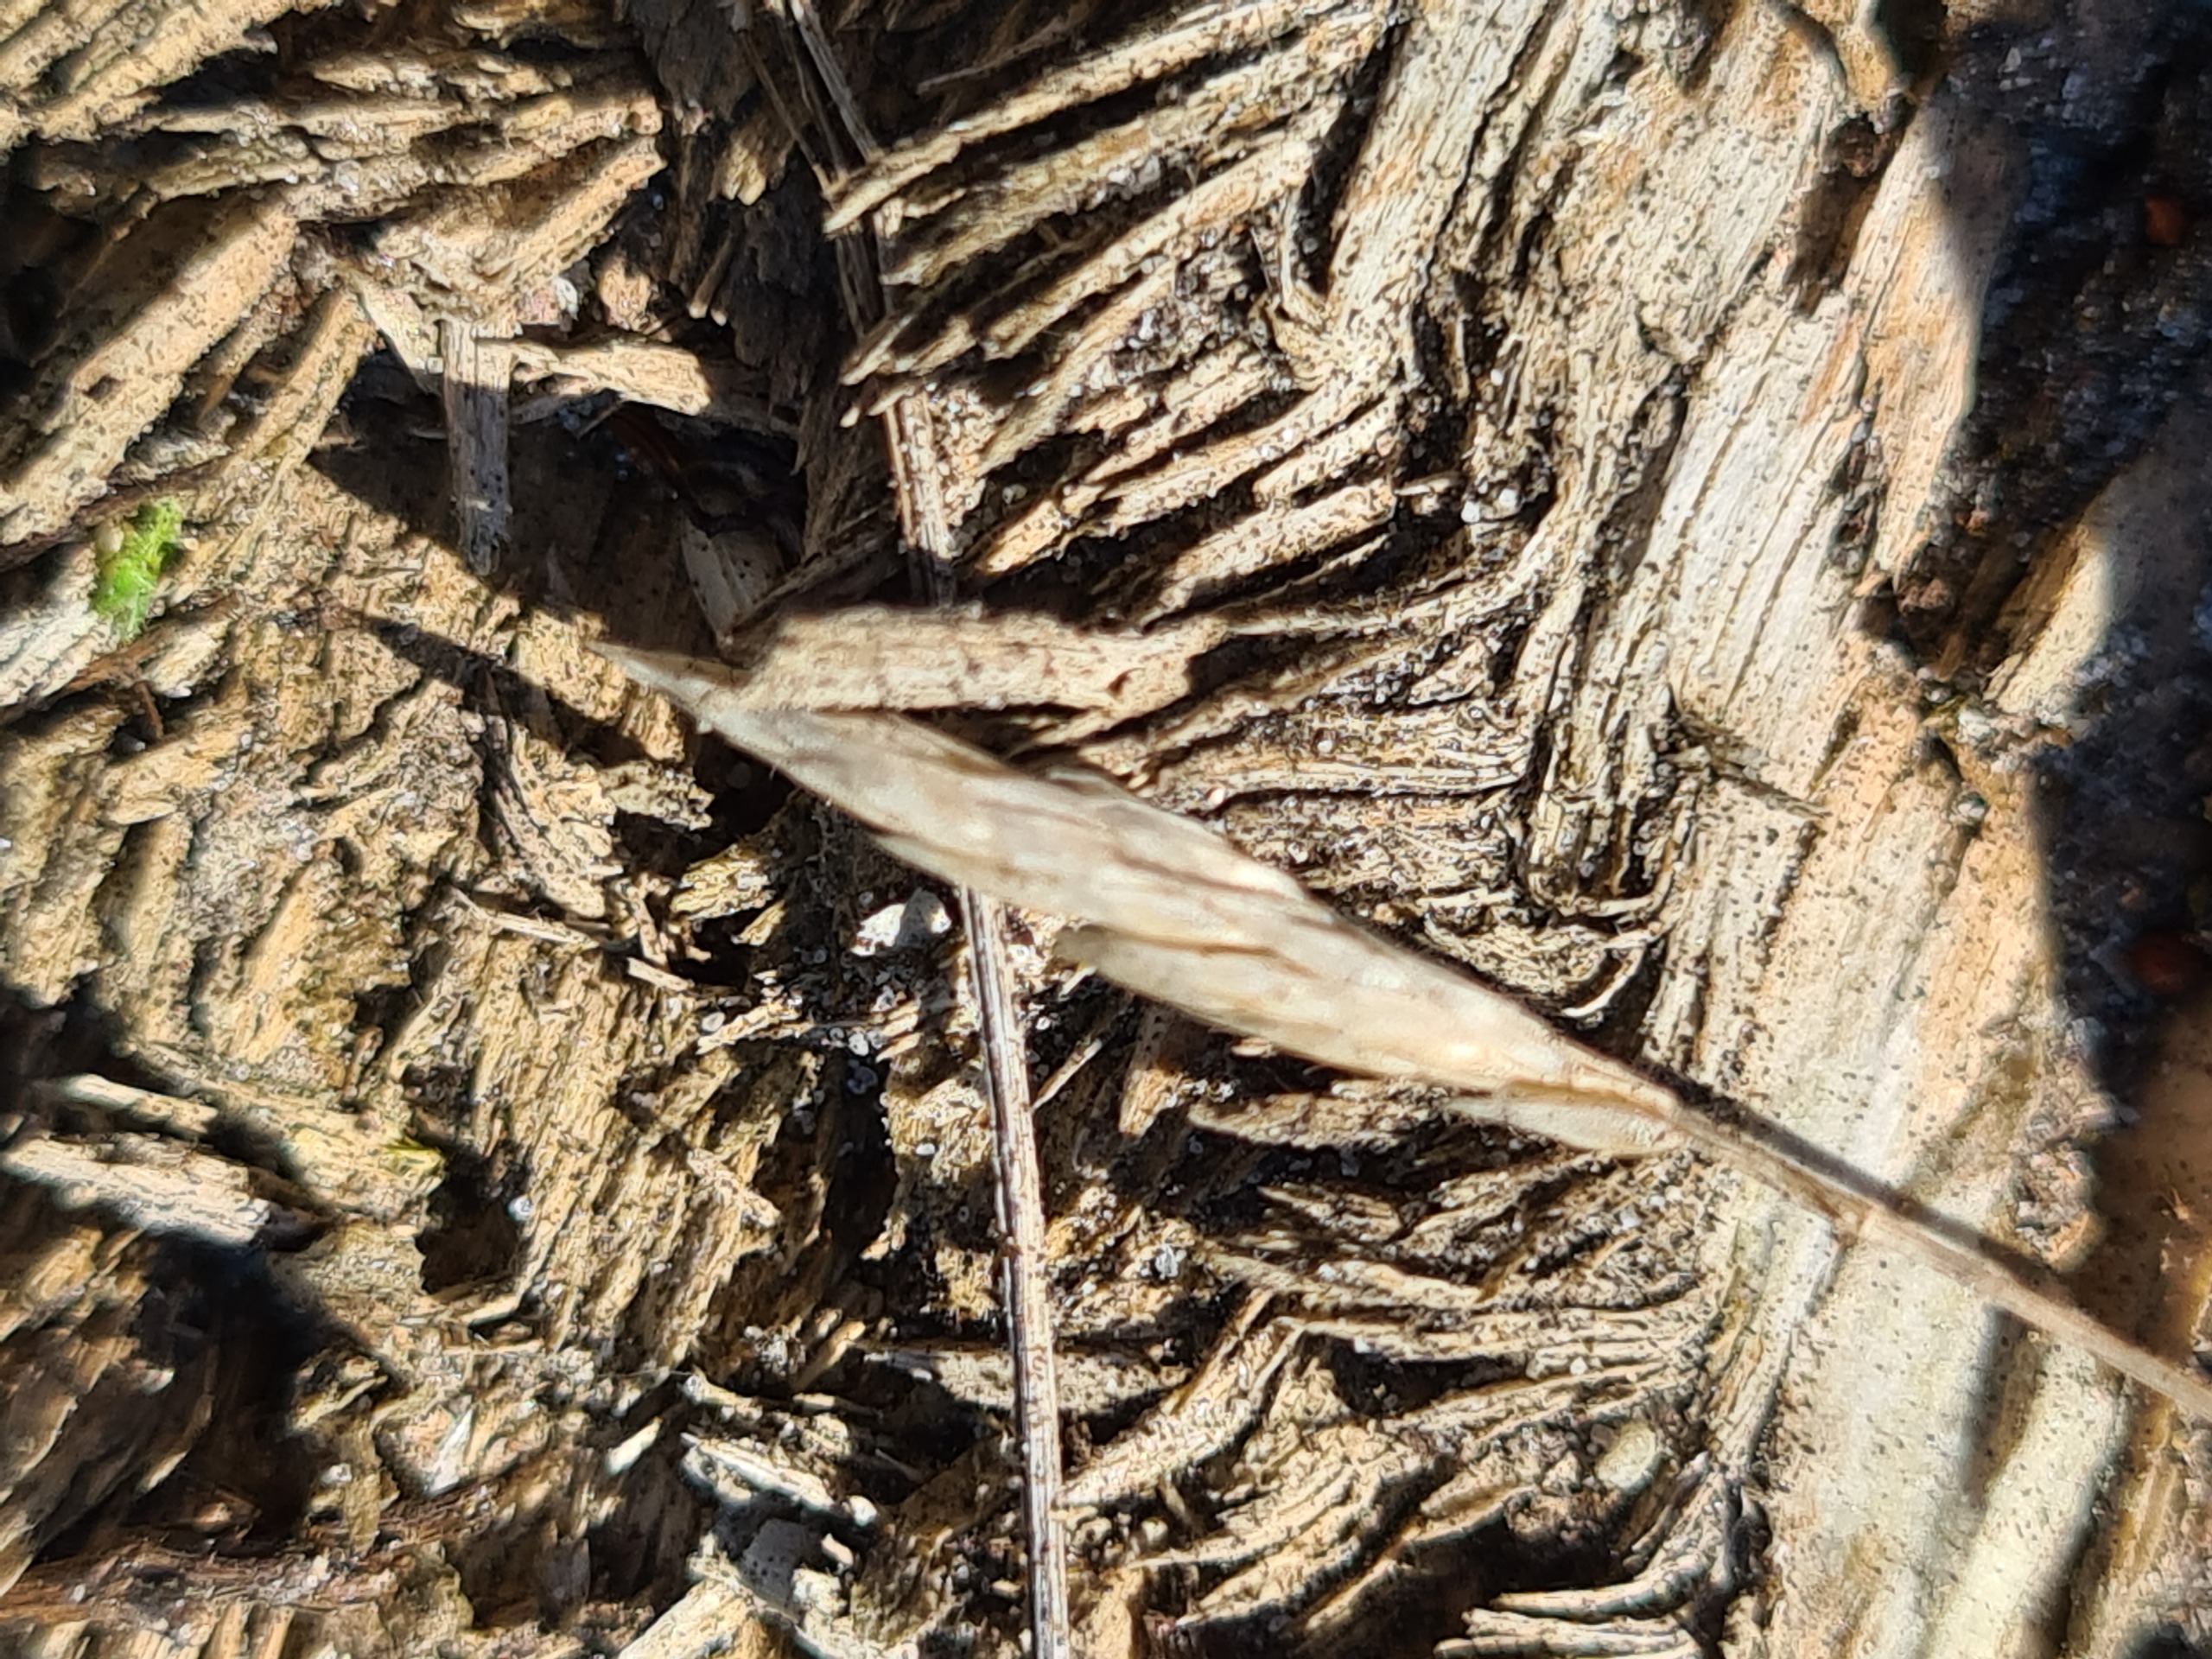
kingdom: Plantae
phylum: Tracheophyta
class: Liliopsida
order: Poales
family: Poaceae
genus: Aira
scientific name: Aira praecox
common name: Tidlig dværgbunke
